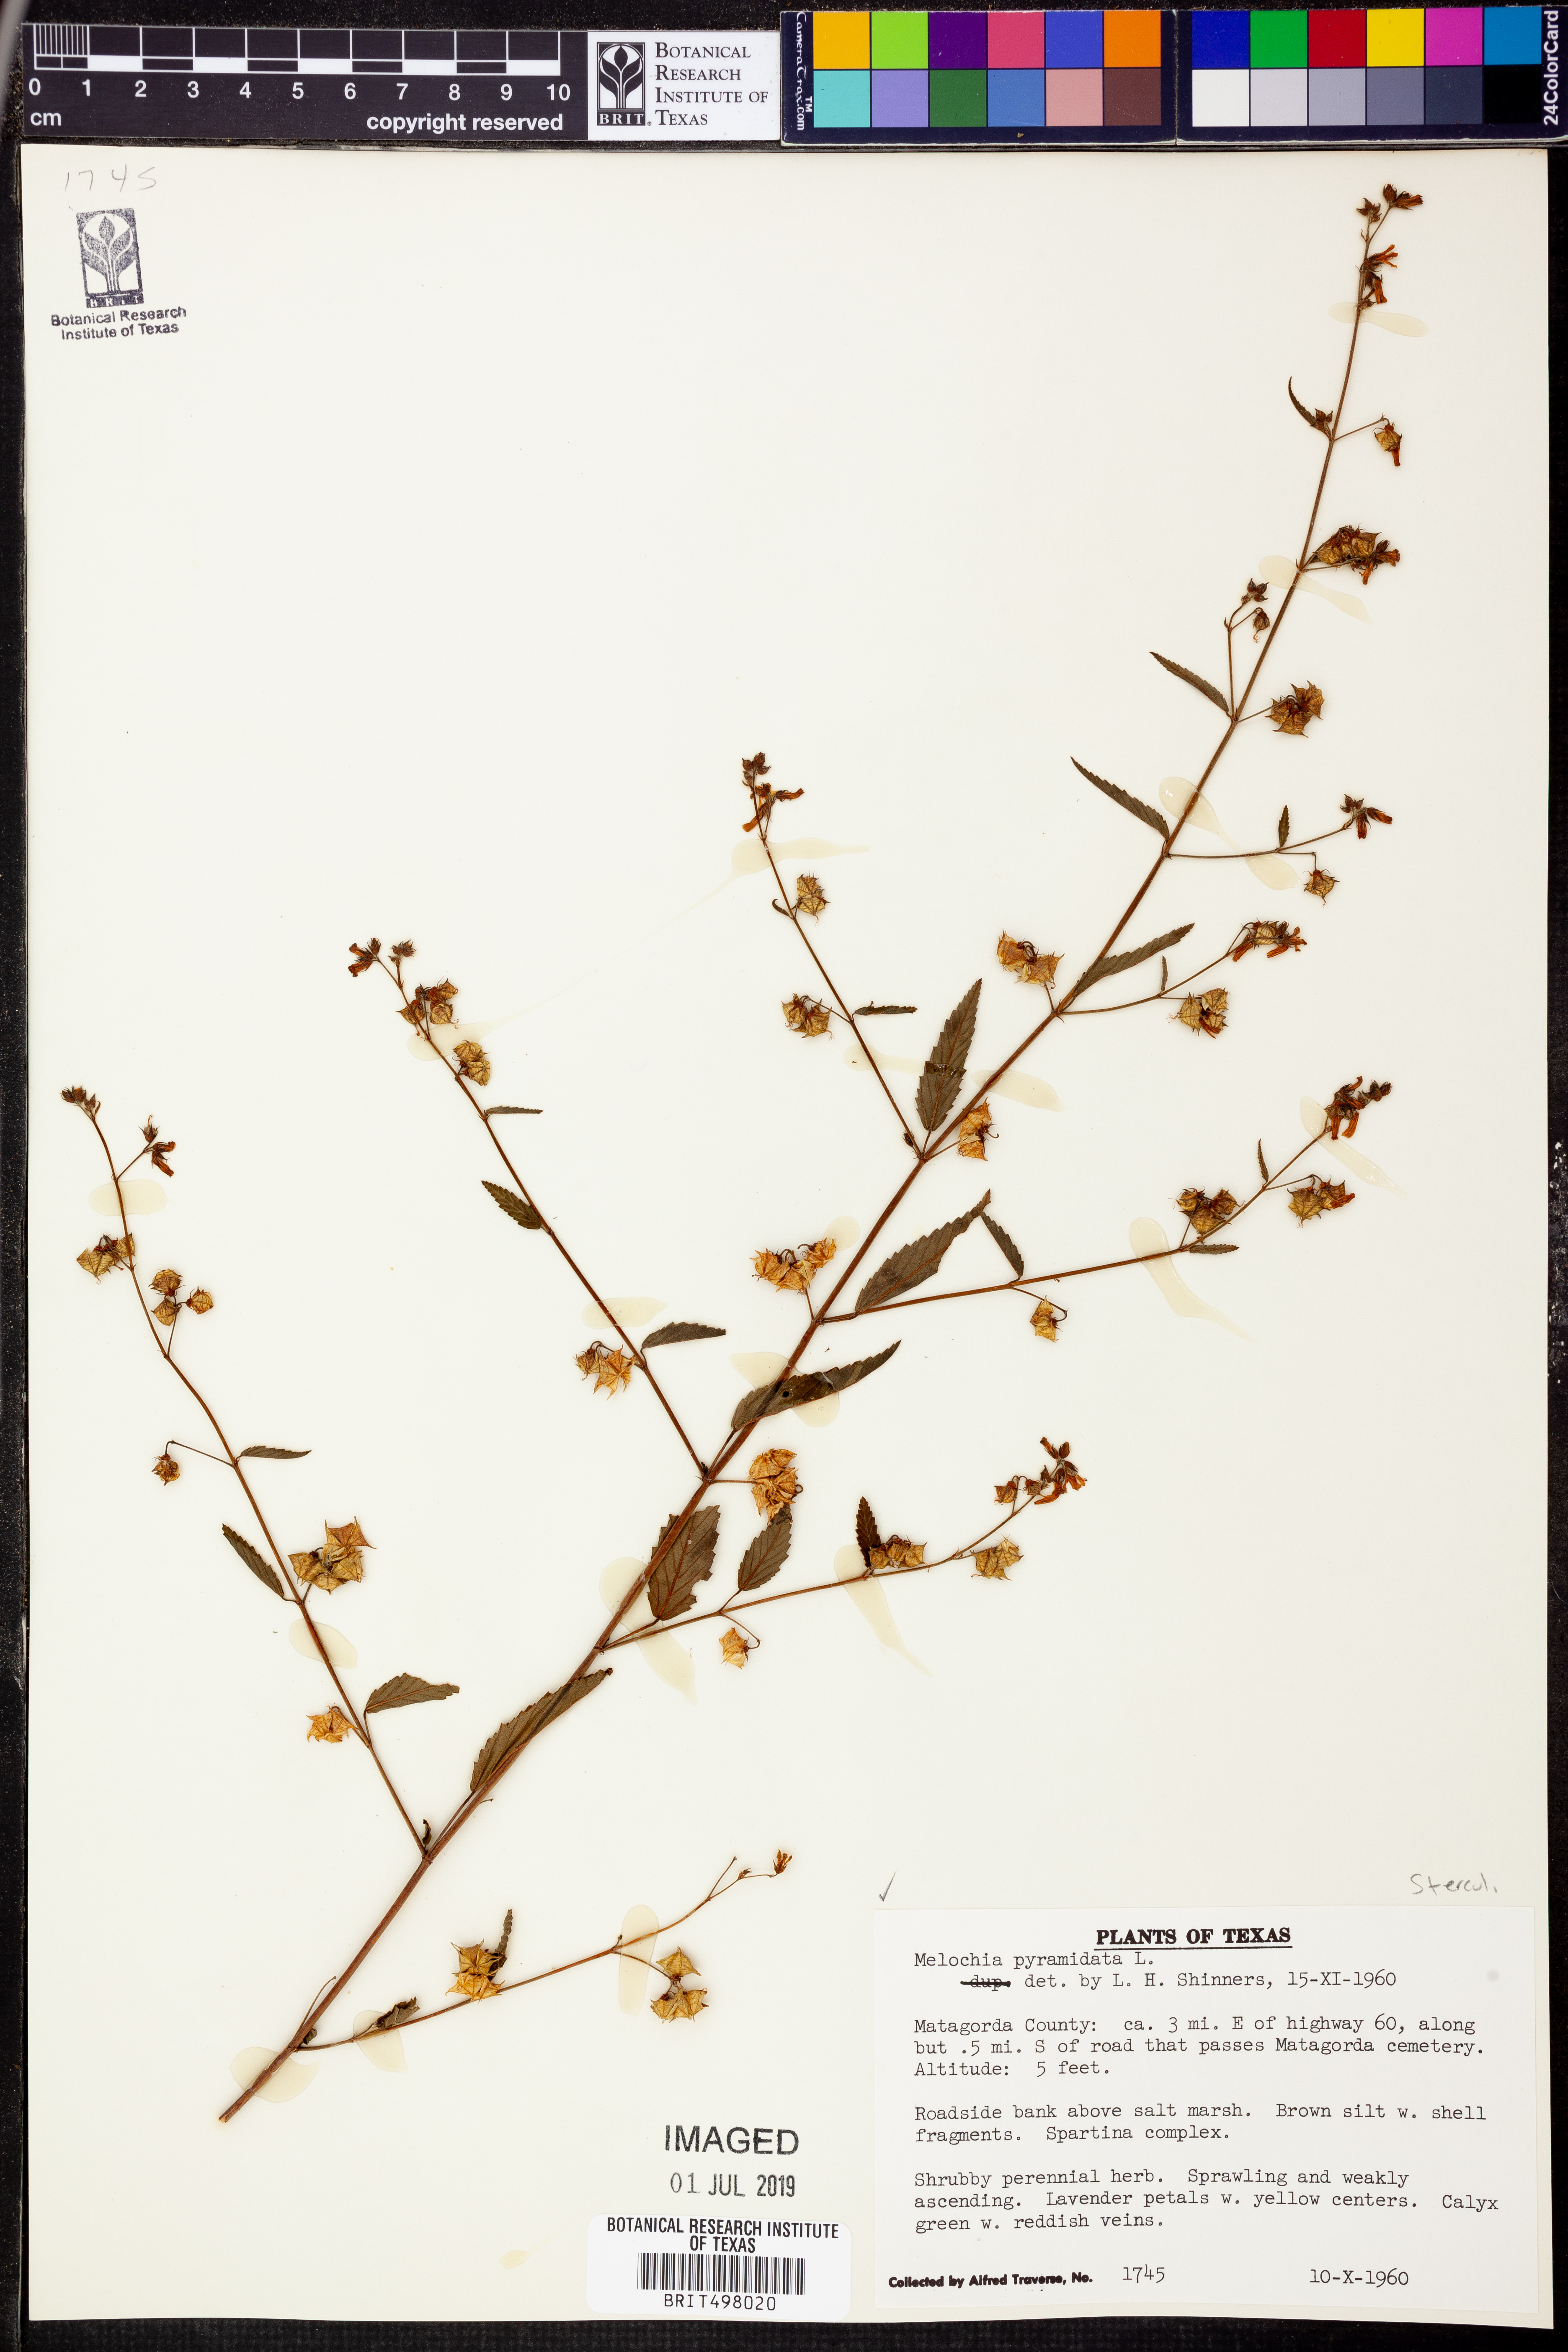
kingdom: Plantae
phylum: Tracheophyta
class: Magnoliopsida
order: Malvales
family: Malvaceae
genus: Melochia
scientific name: Melochia pyramidata
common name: Pyramidflower
